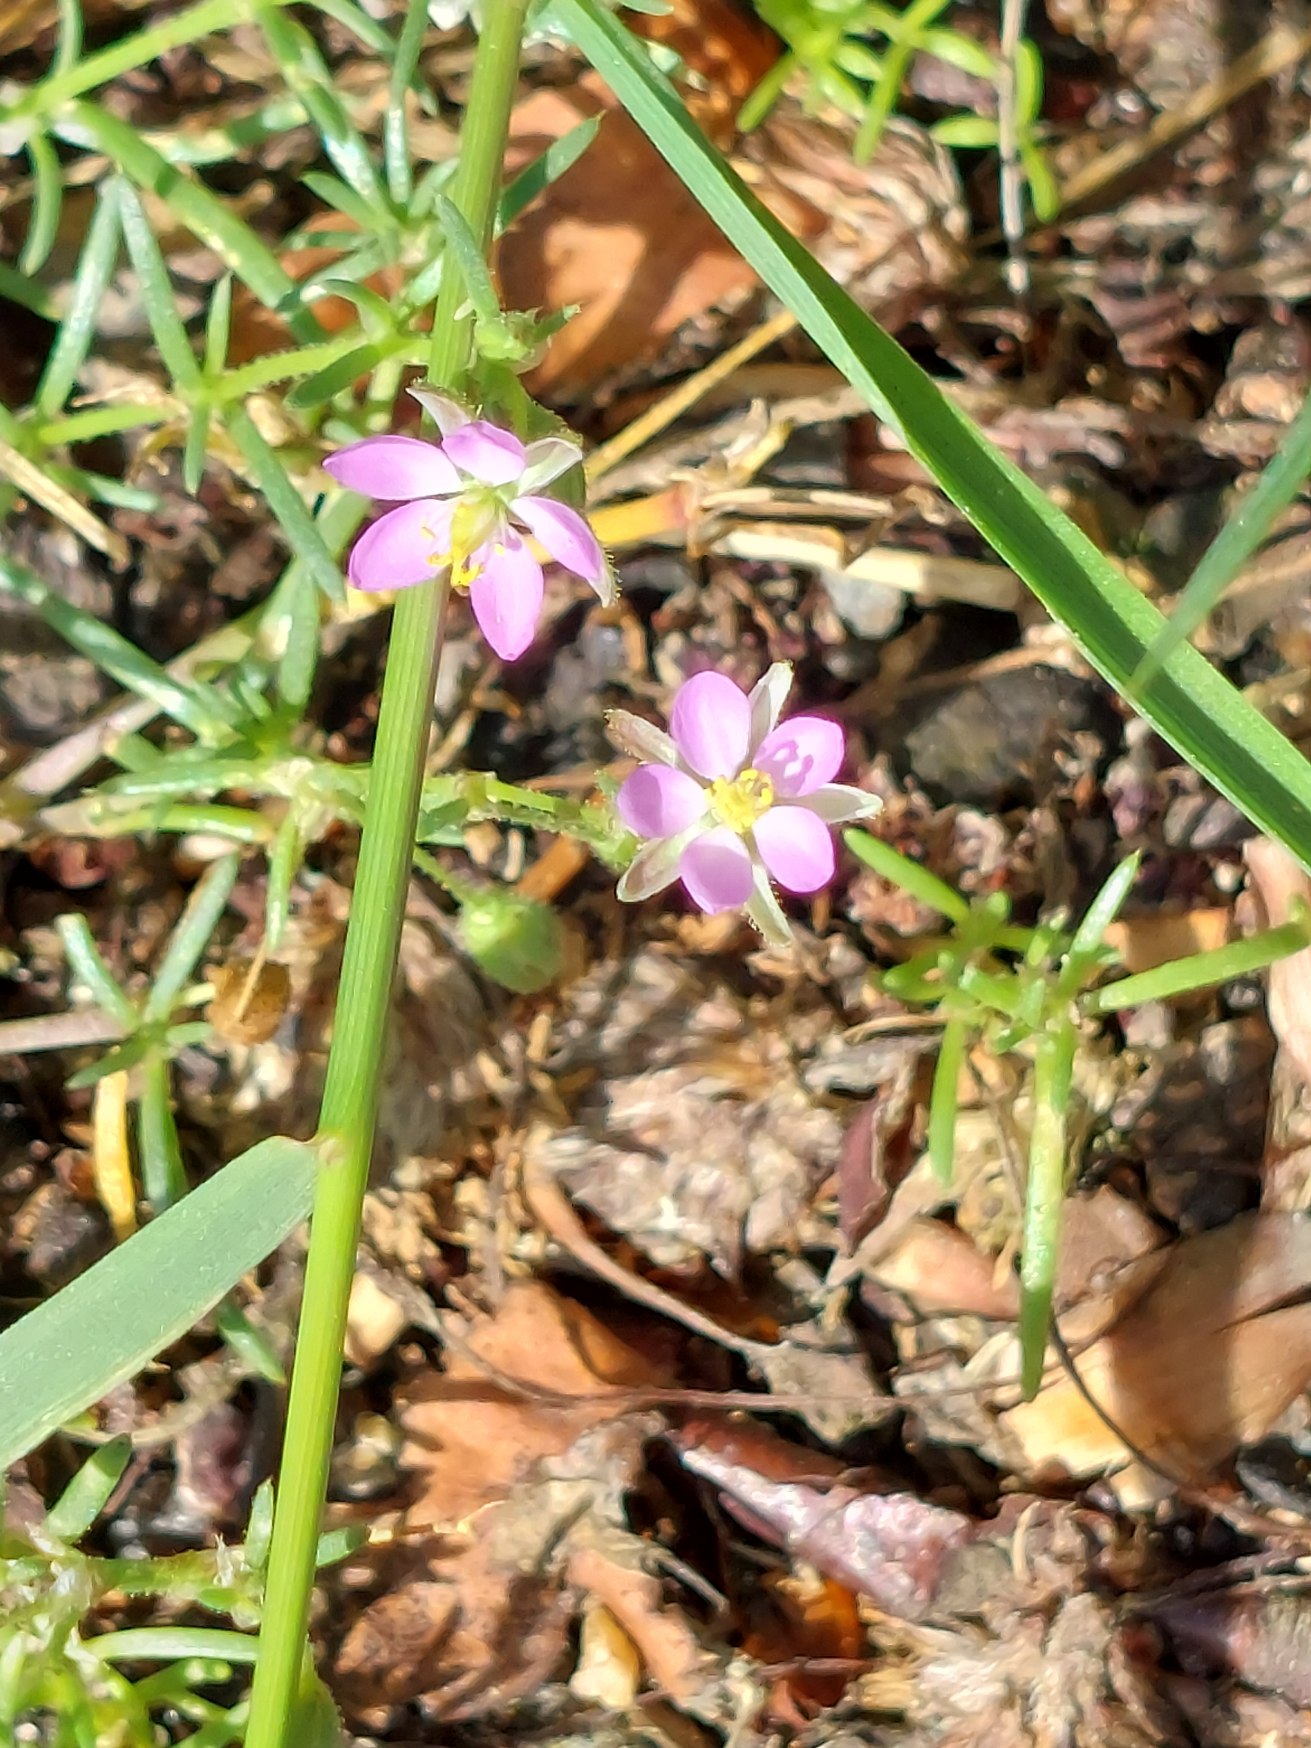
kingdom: Plantae
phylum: Tracheophyta
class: Magnoliopsida
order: Caryophyllales
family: Caryophyllaceae
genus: Spergularia
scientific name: Spergularia rubra
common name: Mark-hindeknæ
